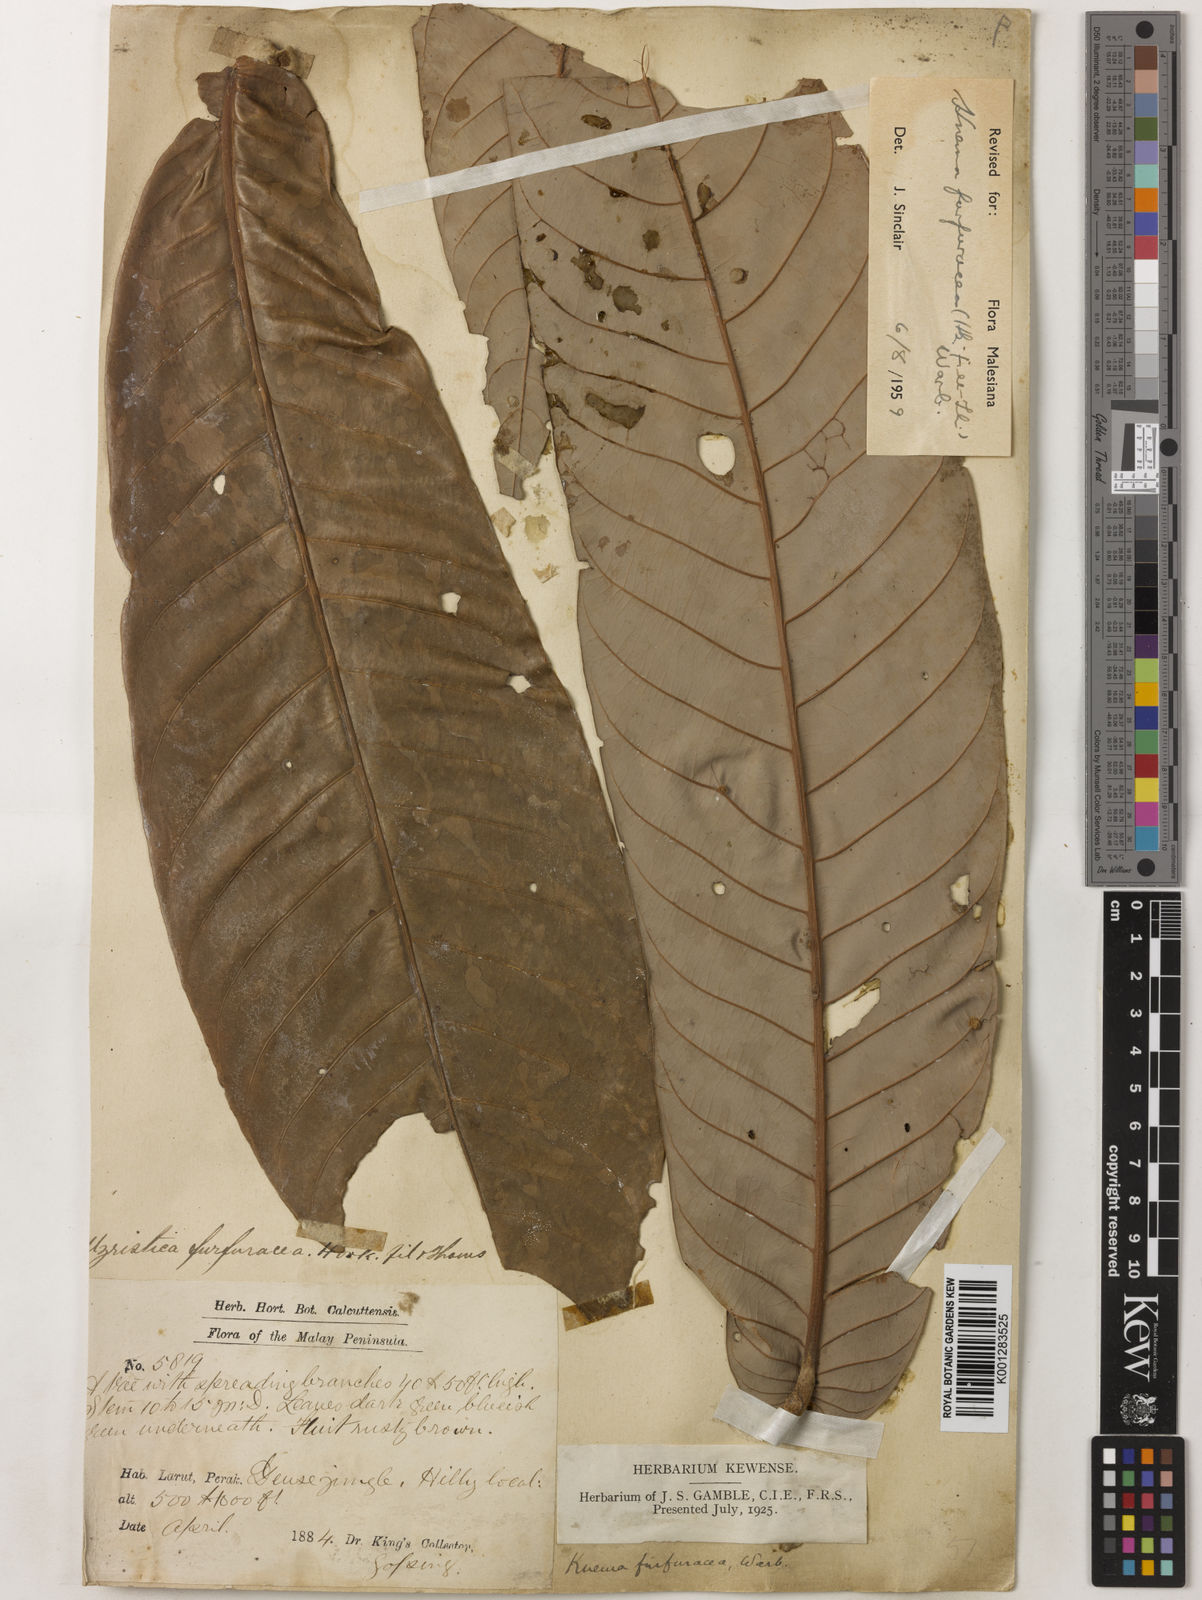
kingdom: Plantae
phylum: Tracheophyta
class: Magnoliopsida
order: Magnoliales
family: Myristicaceae
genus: Knema
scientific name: Knema furfuracea
